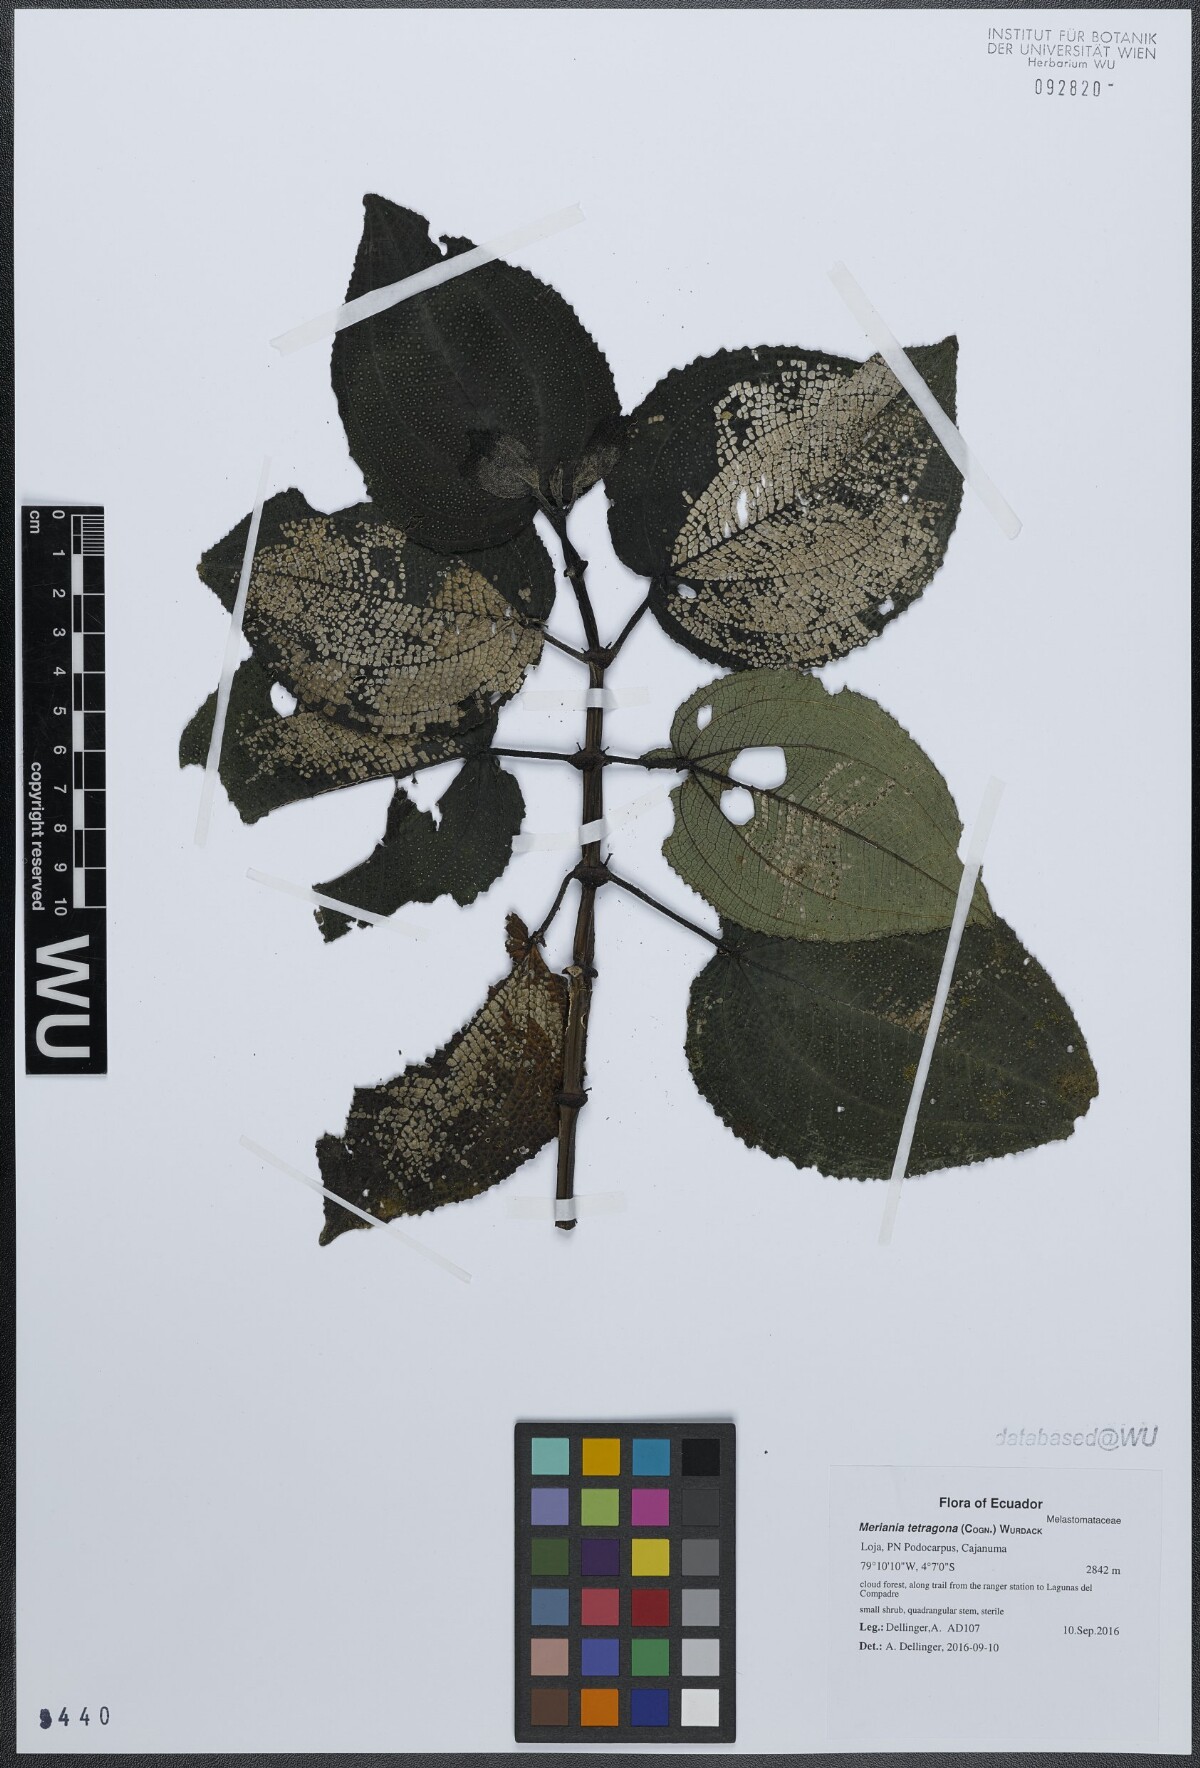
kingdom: Plantae
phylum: Tracheophyta
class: Magnoliopsida
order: Myrtales
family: Melastomataceae
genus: Meriania
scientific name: Meriania tetragona
